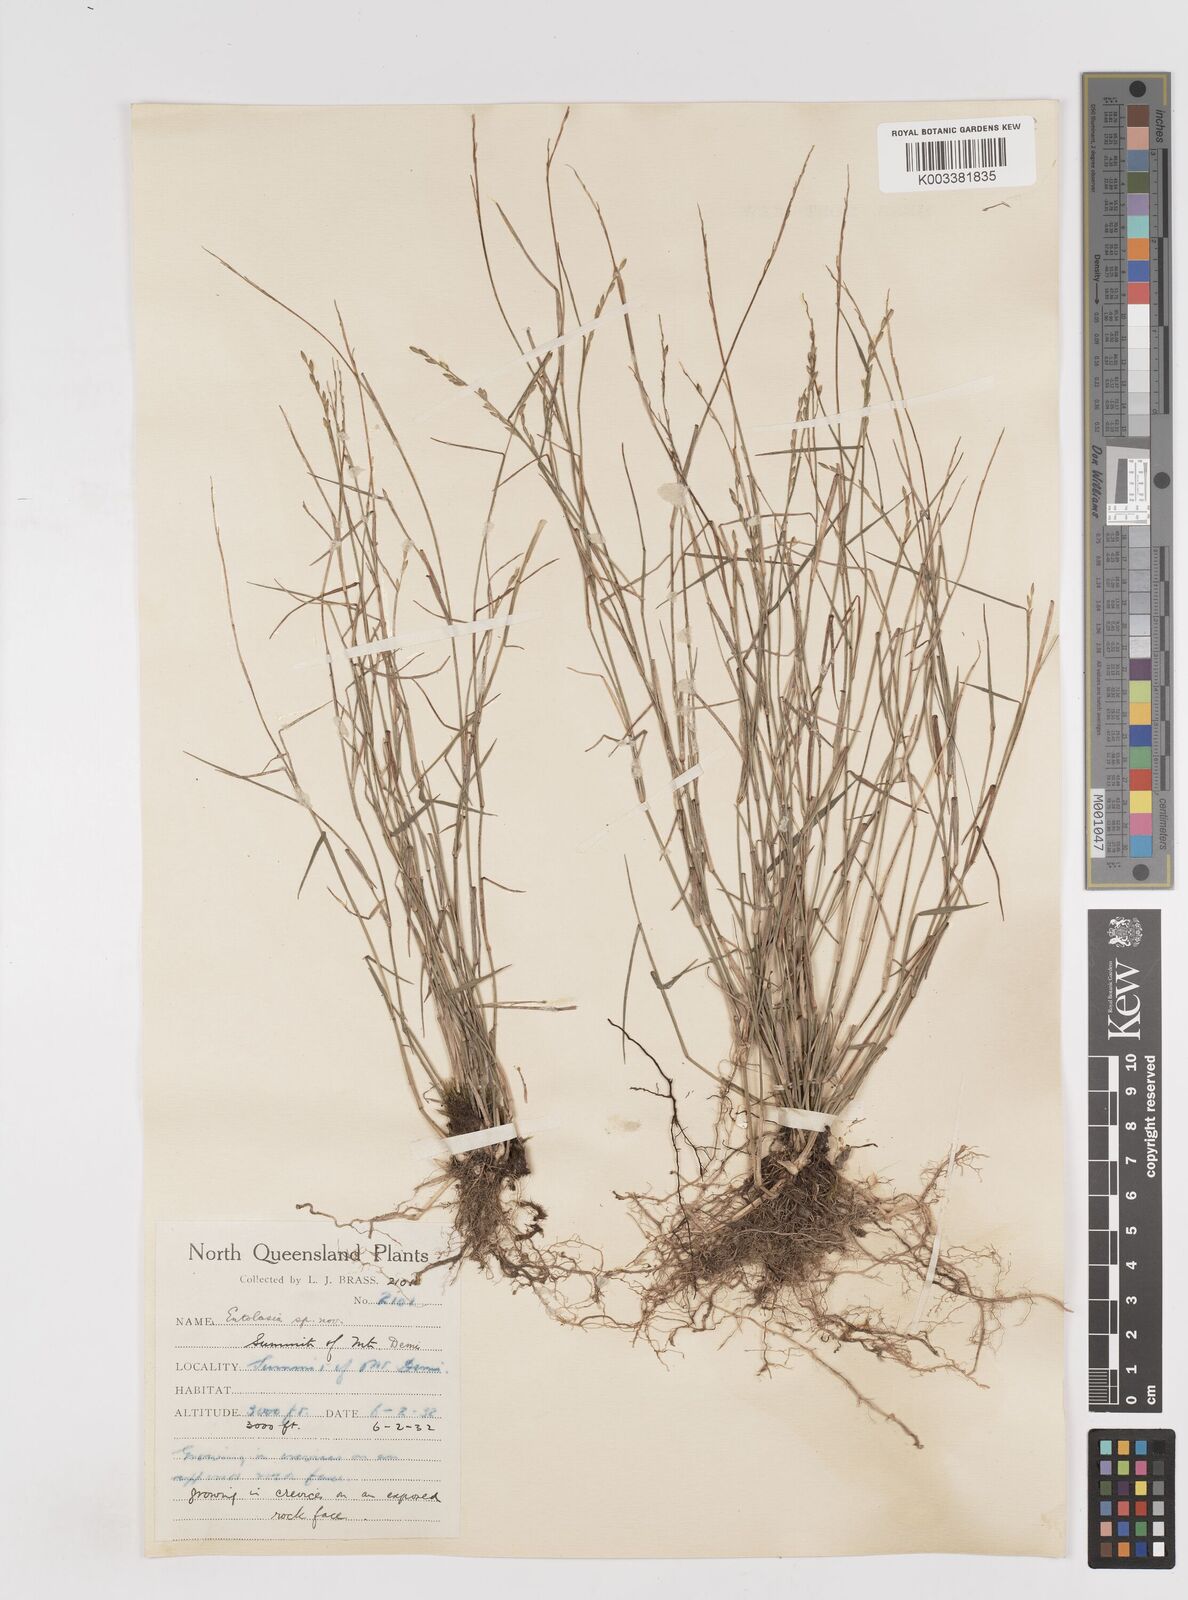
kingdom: Plantae
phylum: Tracheophyta
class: Liliopsida
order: Poales
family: Poaceae
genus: Entolasia
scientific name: Entolasia
